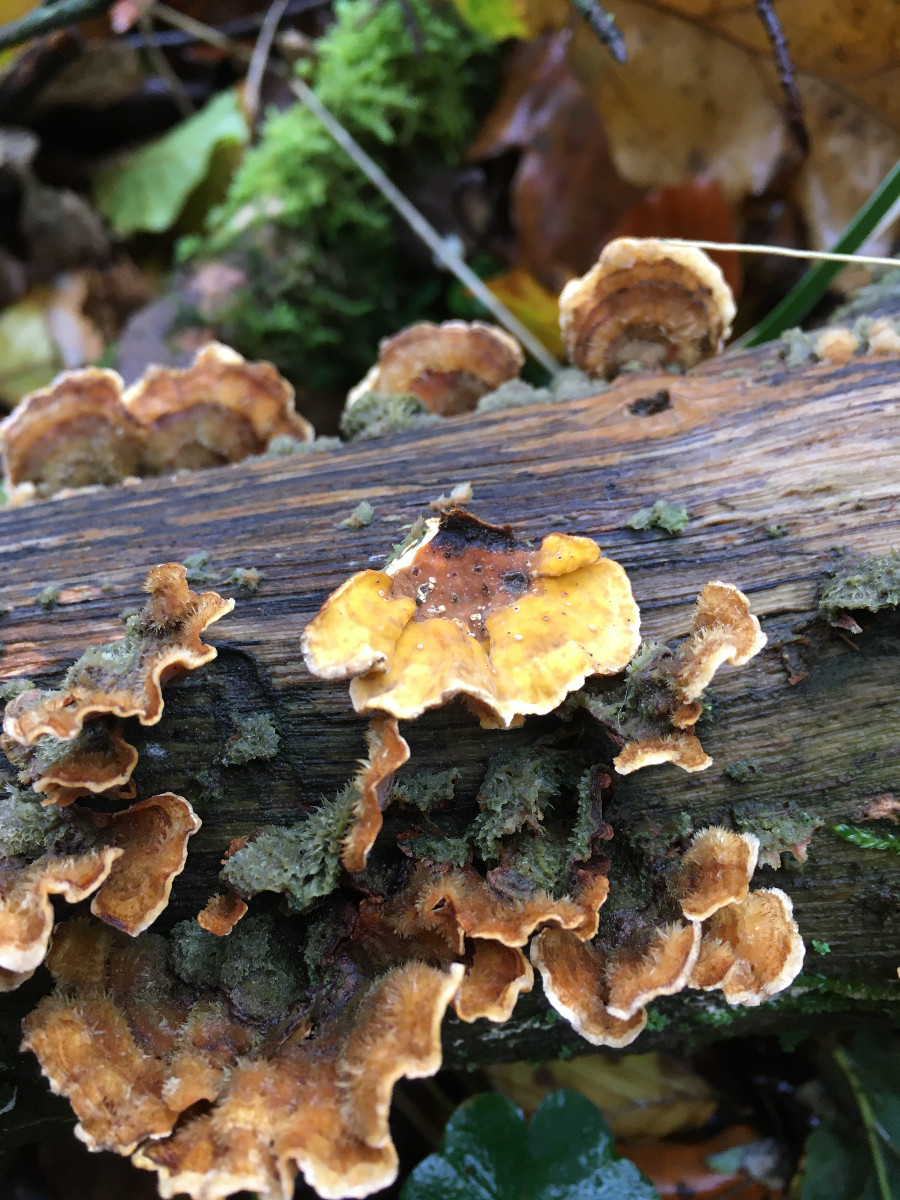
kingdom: Fungi
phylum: Basidiomycota
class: Agaricomycetes
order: Russulales
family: Stereaceae
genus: Stereum
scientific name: Stereum hirsutum
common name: håret lædersvamp
